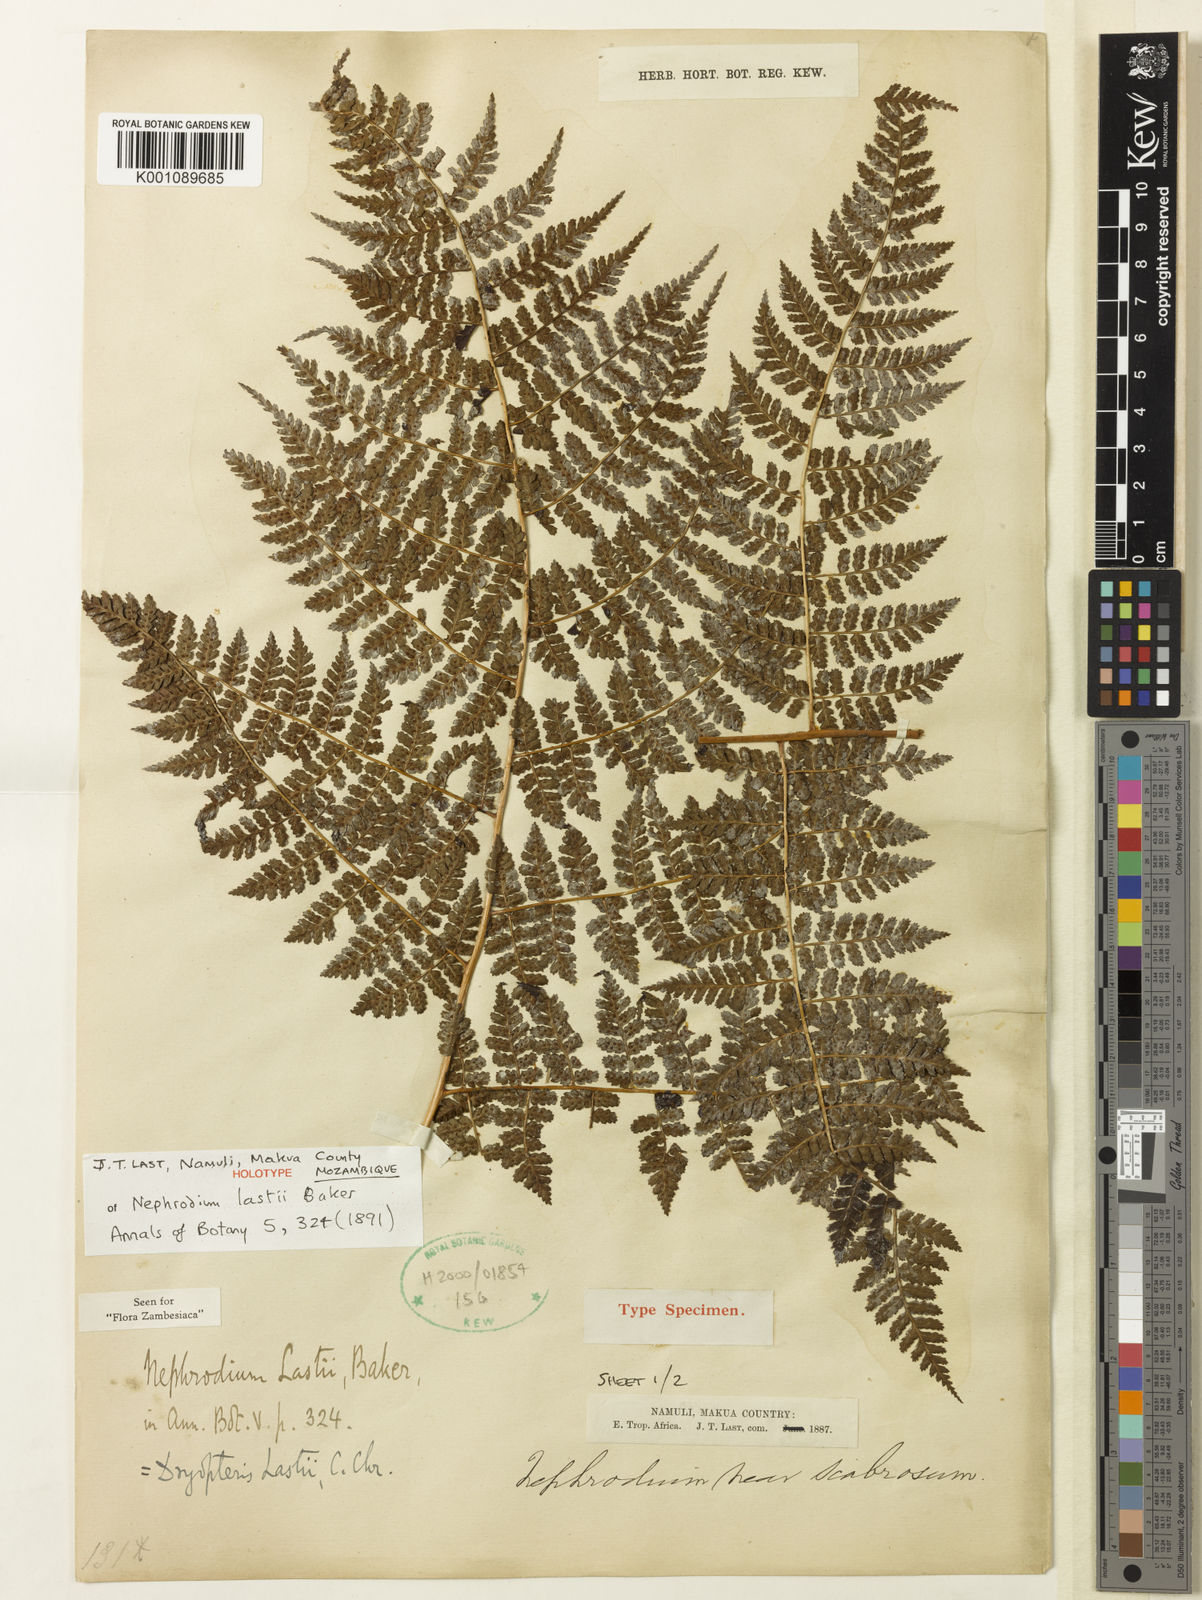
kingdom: Plantae
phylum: Tracheophyta
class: Polypodiopsida
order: Polypodiales
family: Dryopteridaceae
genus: Dryopteris
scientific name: Dryopteris kilemensis
